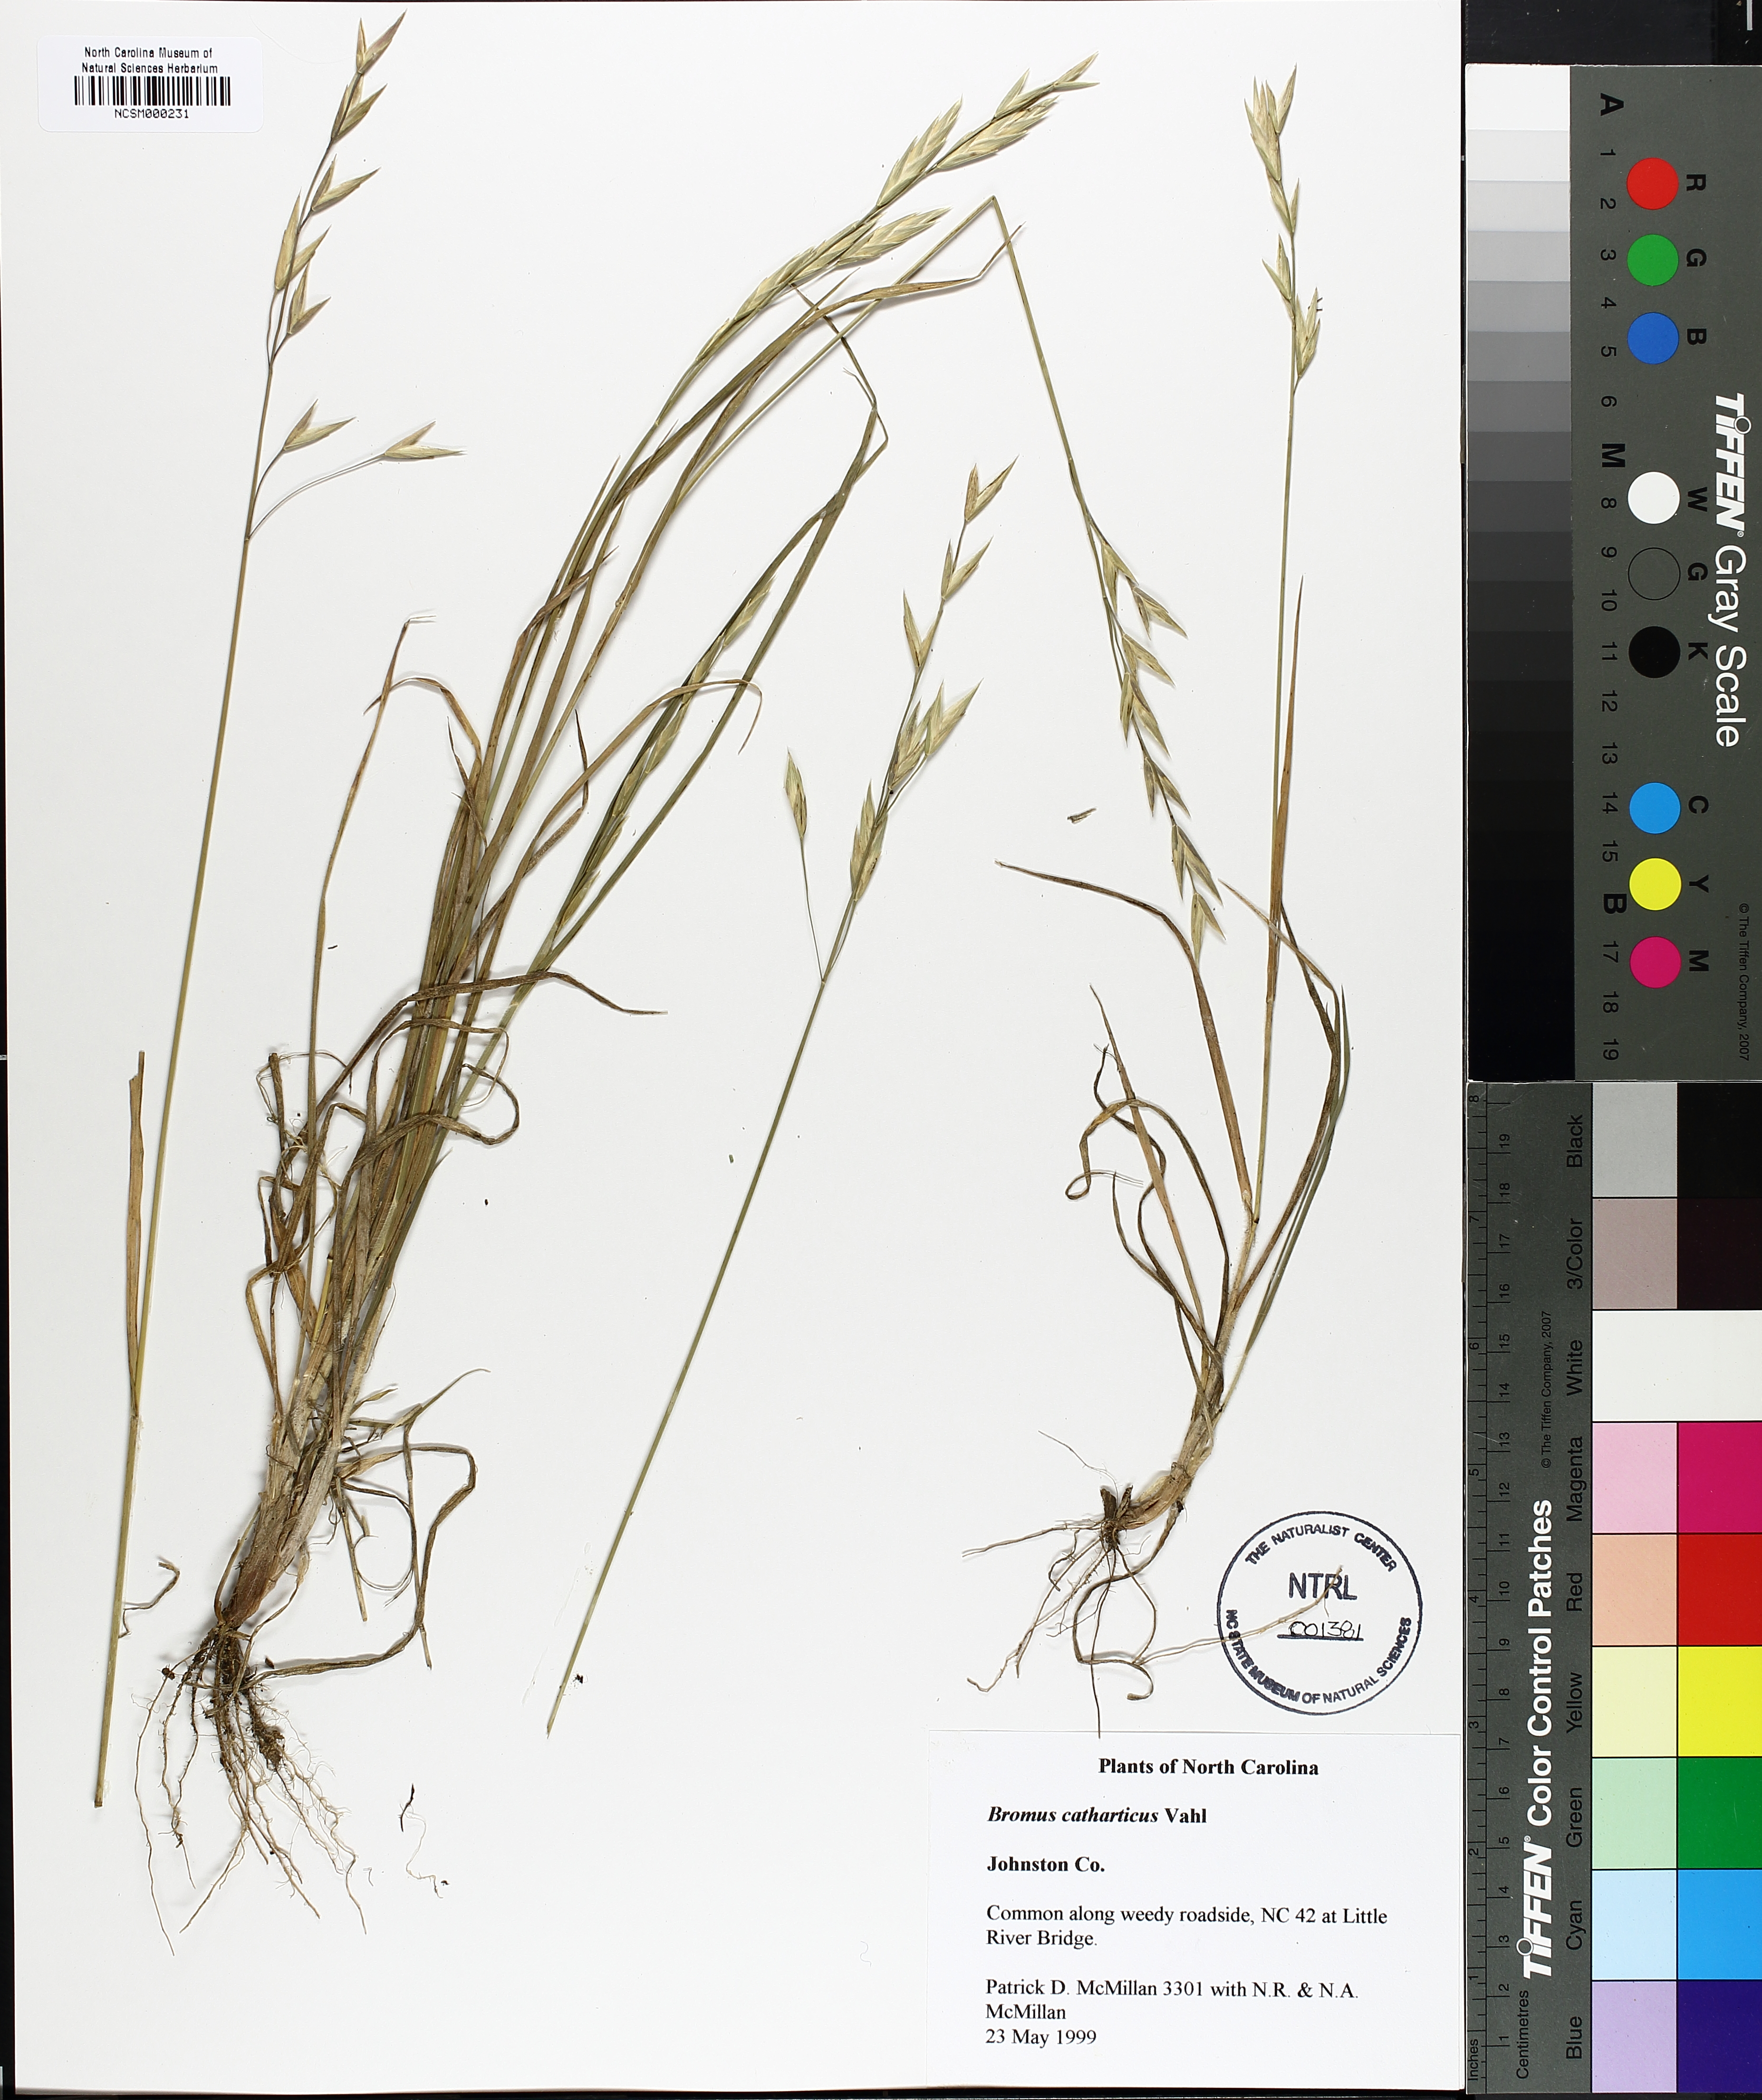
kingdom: Plantae
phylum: Tracheophyta
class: Liliopsida
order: Poales
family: Poaceae
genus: Bromus
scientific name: Bromus catharticus
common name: Rescuegrass
